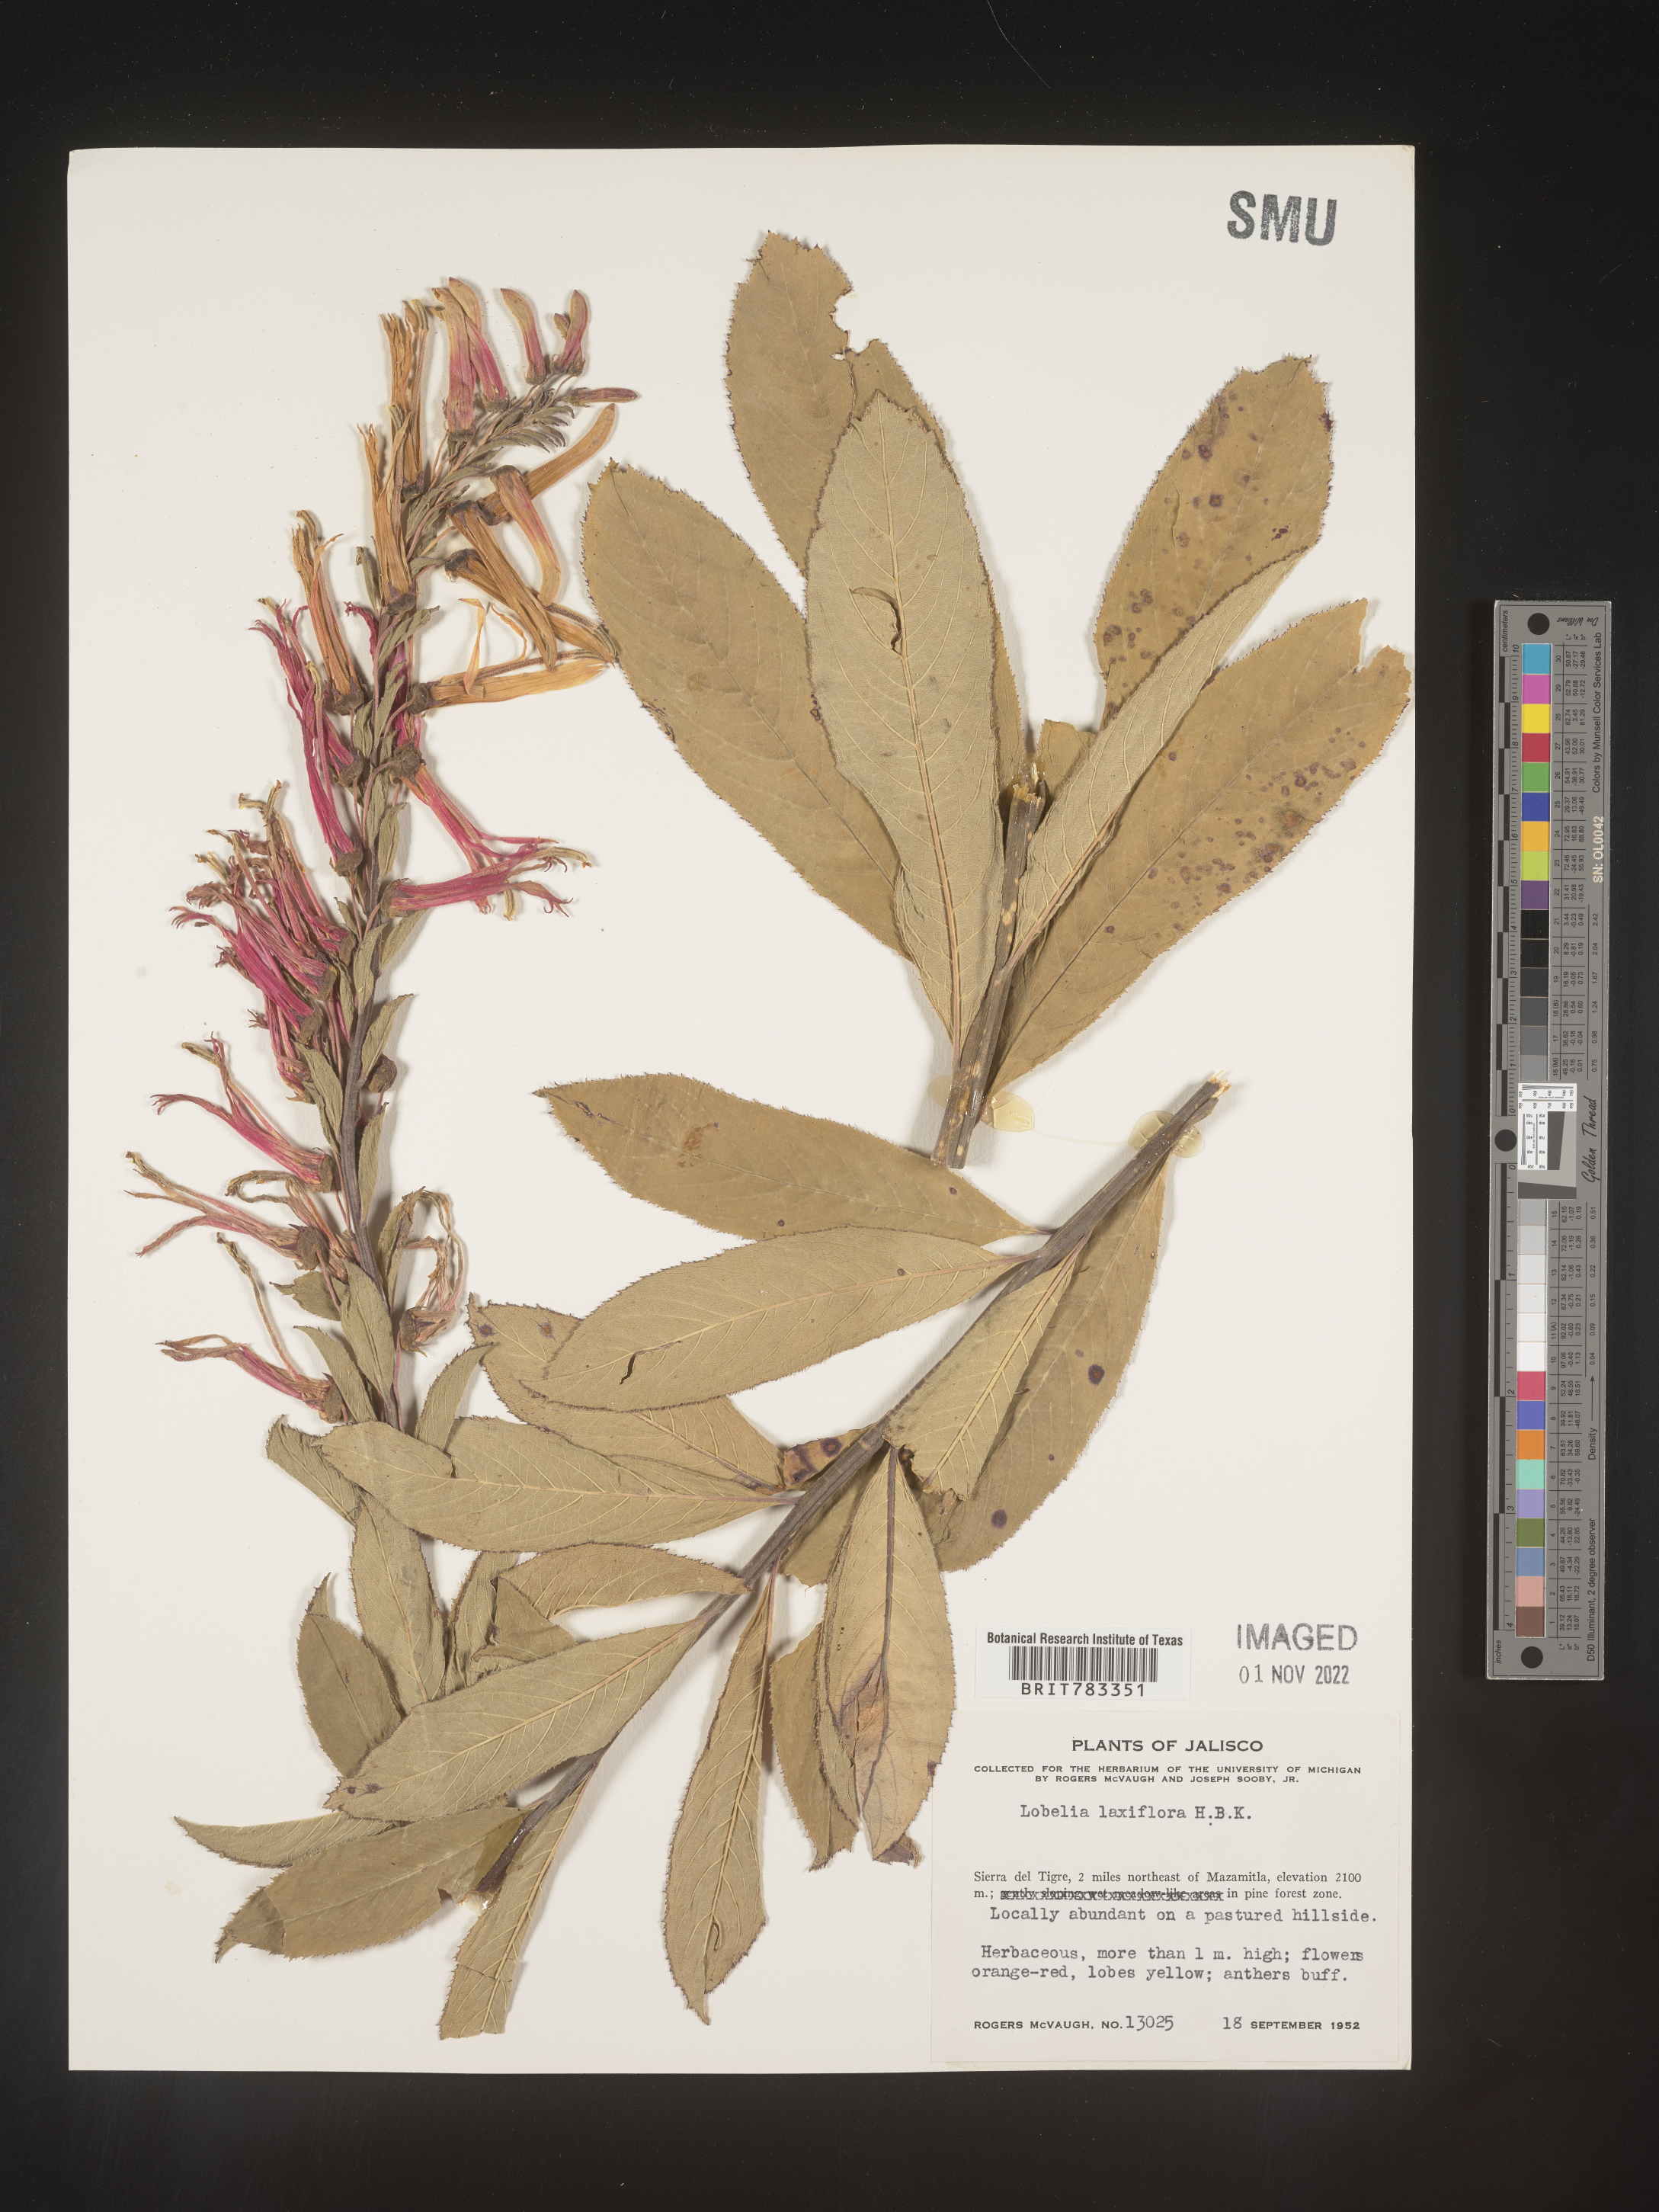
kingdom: Plantae
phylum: Tracheophyta
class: Magnoliopsida
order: Asterales
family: Campanulaceae
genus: Lobelia
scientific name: Lobelia
